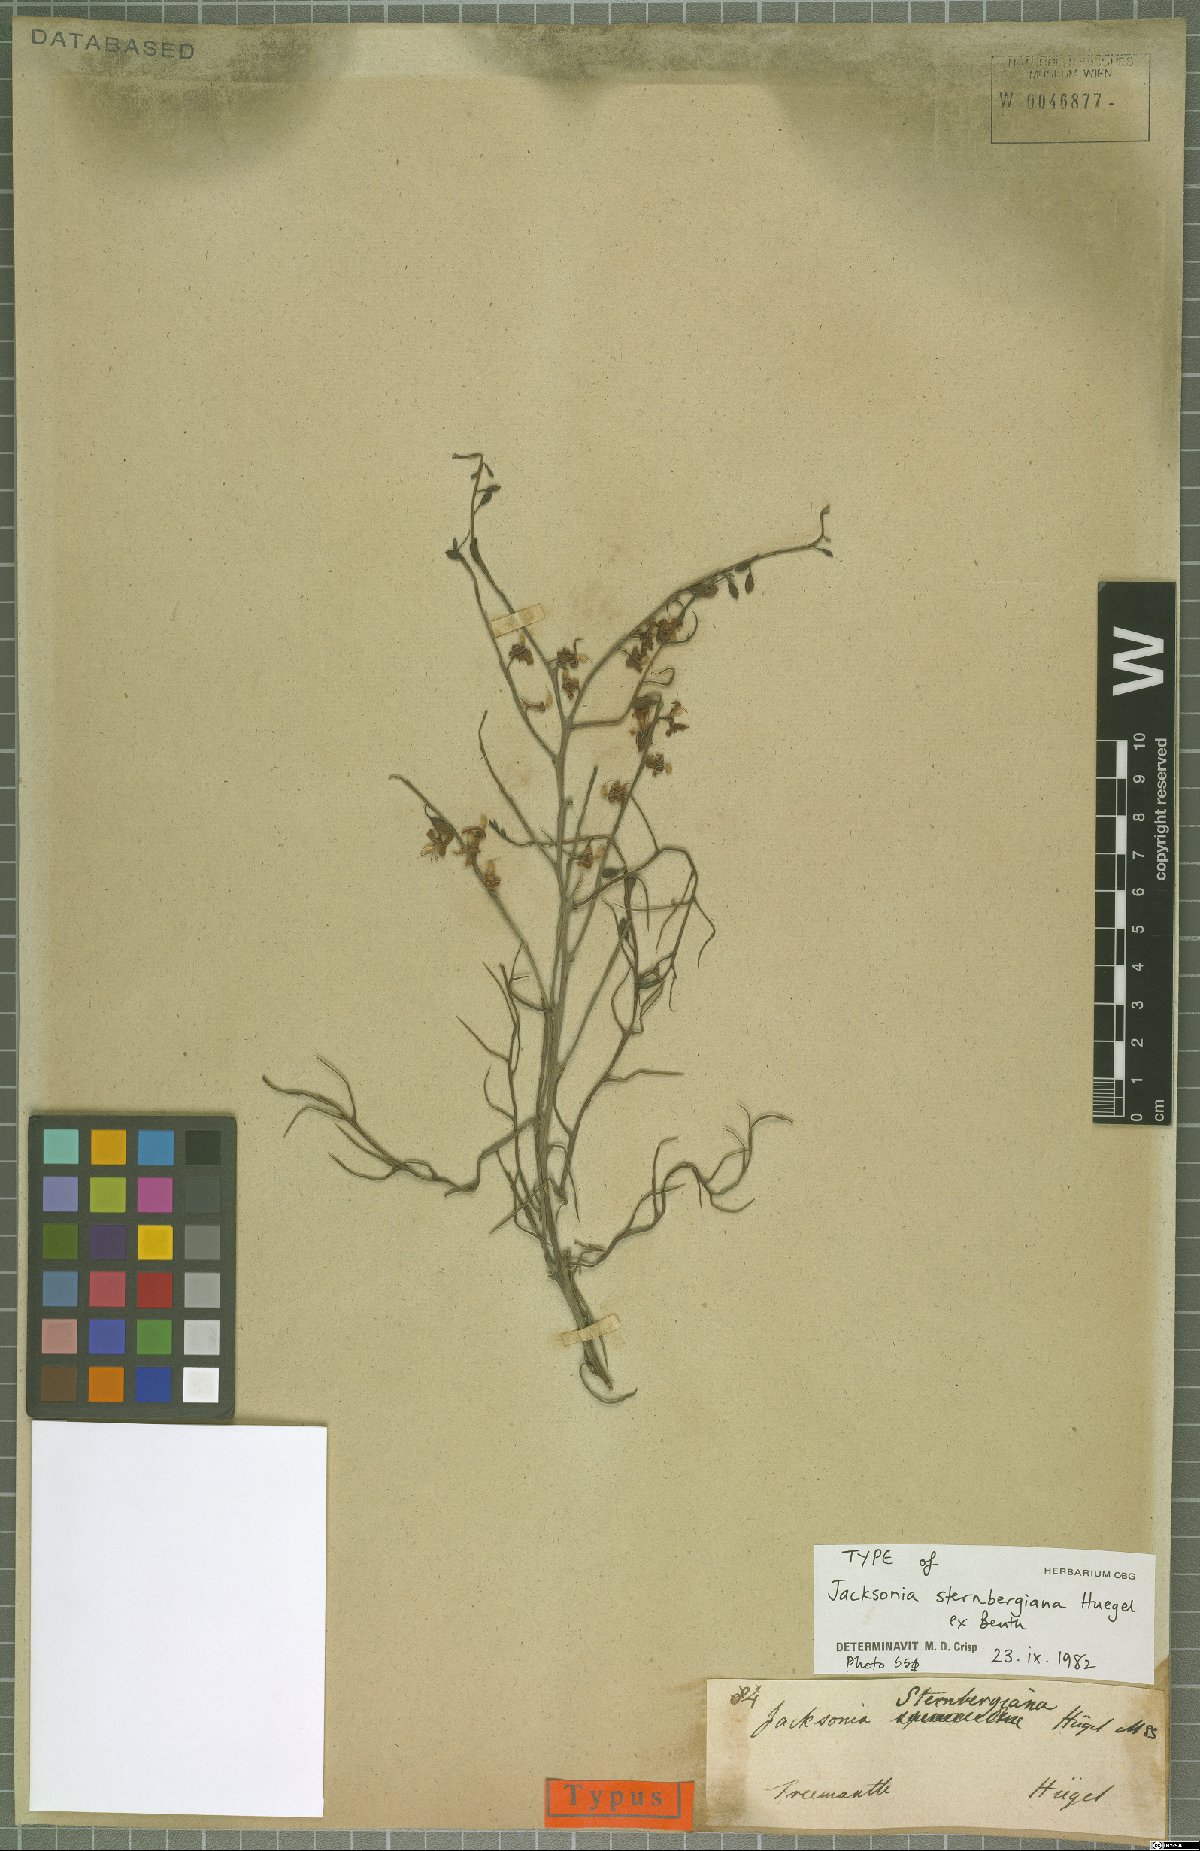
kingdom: Plantae
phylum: Tracheophyta
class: Magnoliopsida
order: Fabales
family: Fabaceae
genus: Jacksonia
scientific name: Jacksonia sternbergiana
